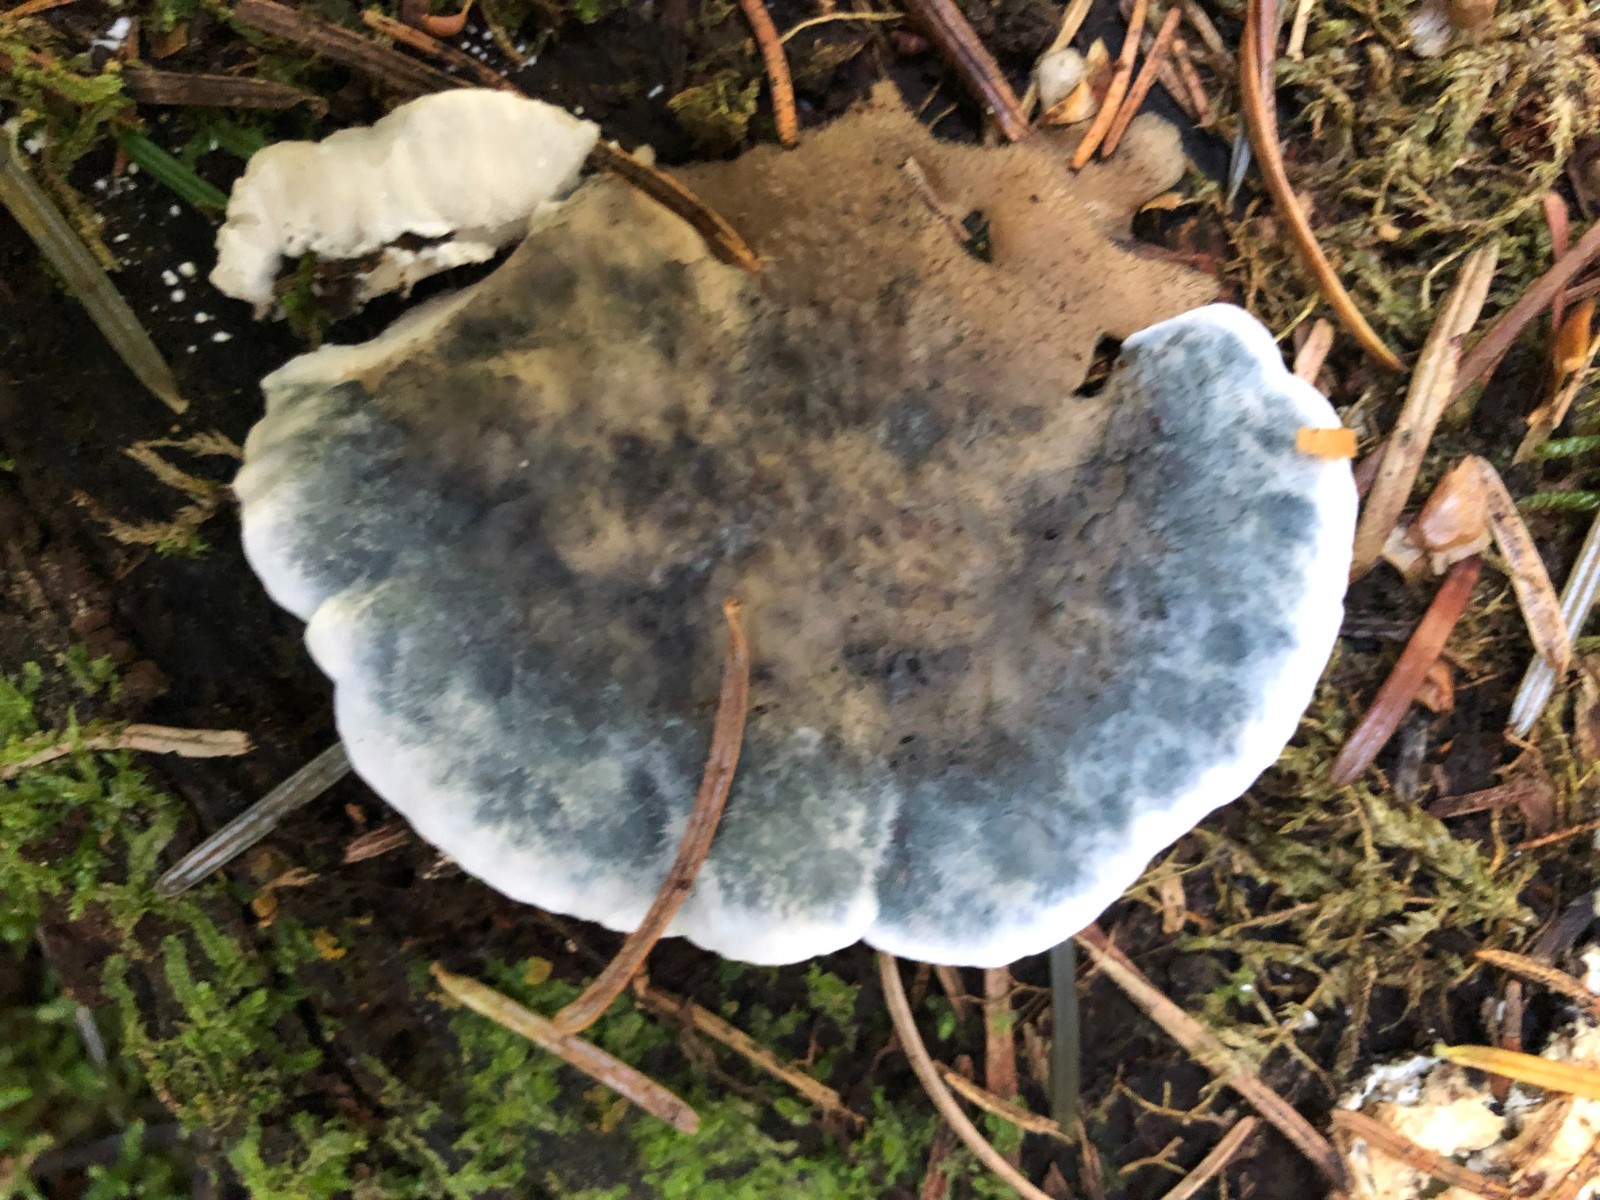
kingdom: Fungi
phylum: Basidiomycota
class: Agaricomycetes
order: Polyporales
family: Polyporaceae
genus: Cyanosporus
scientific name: Cyanosporus caesius
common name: blålig kødporesvamp
